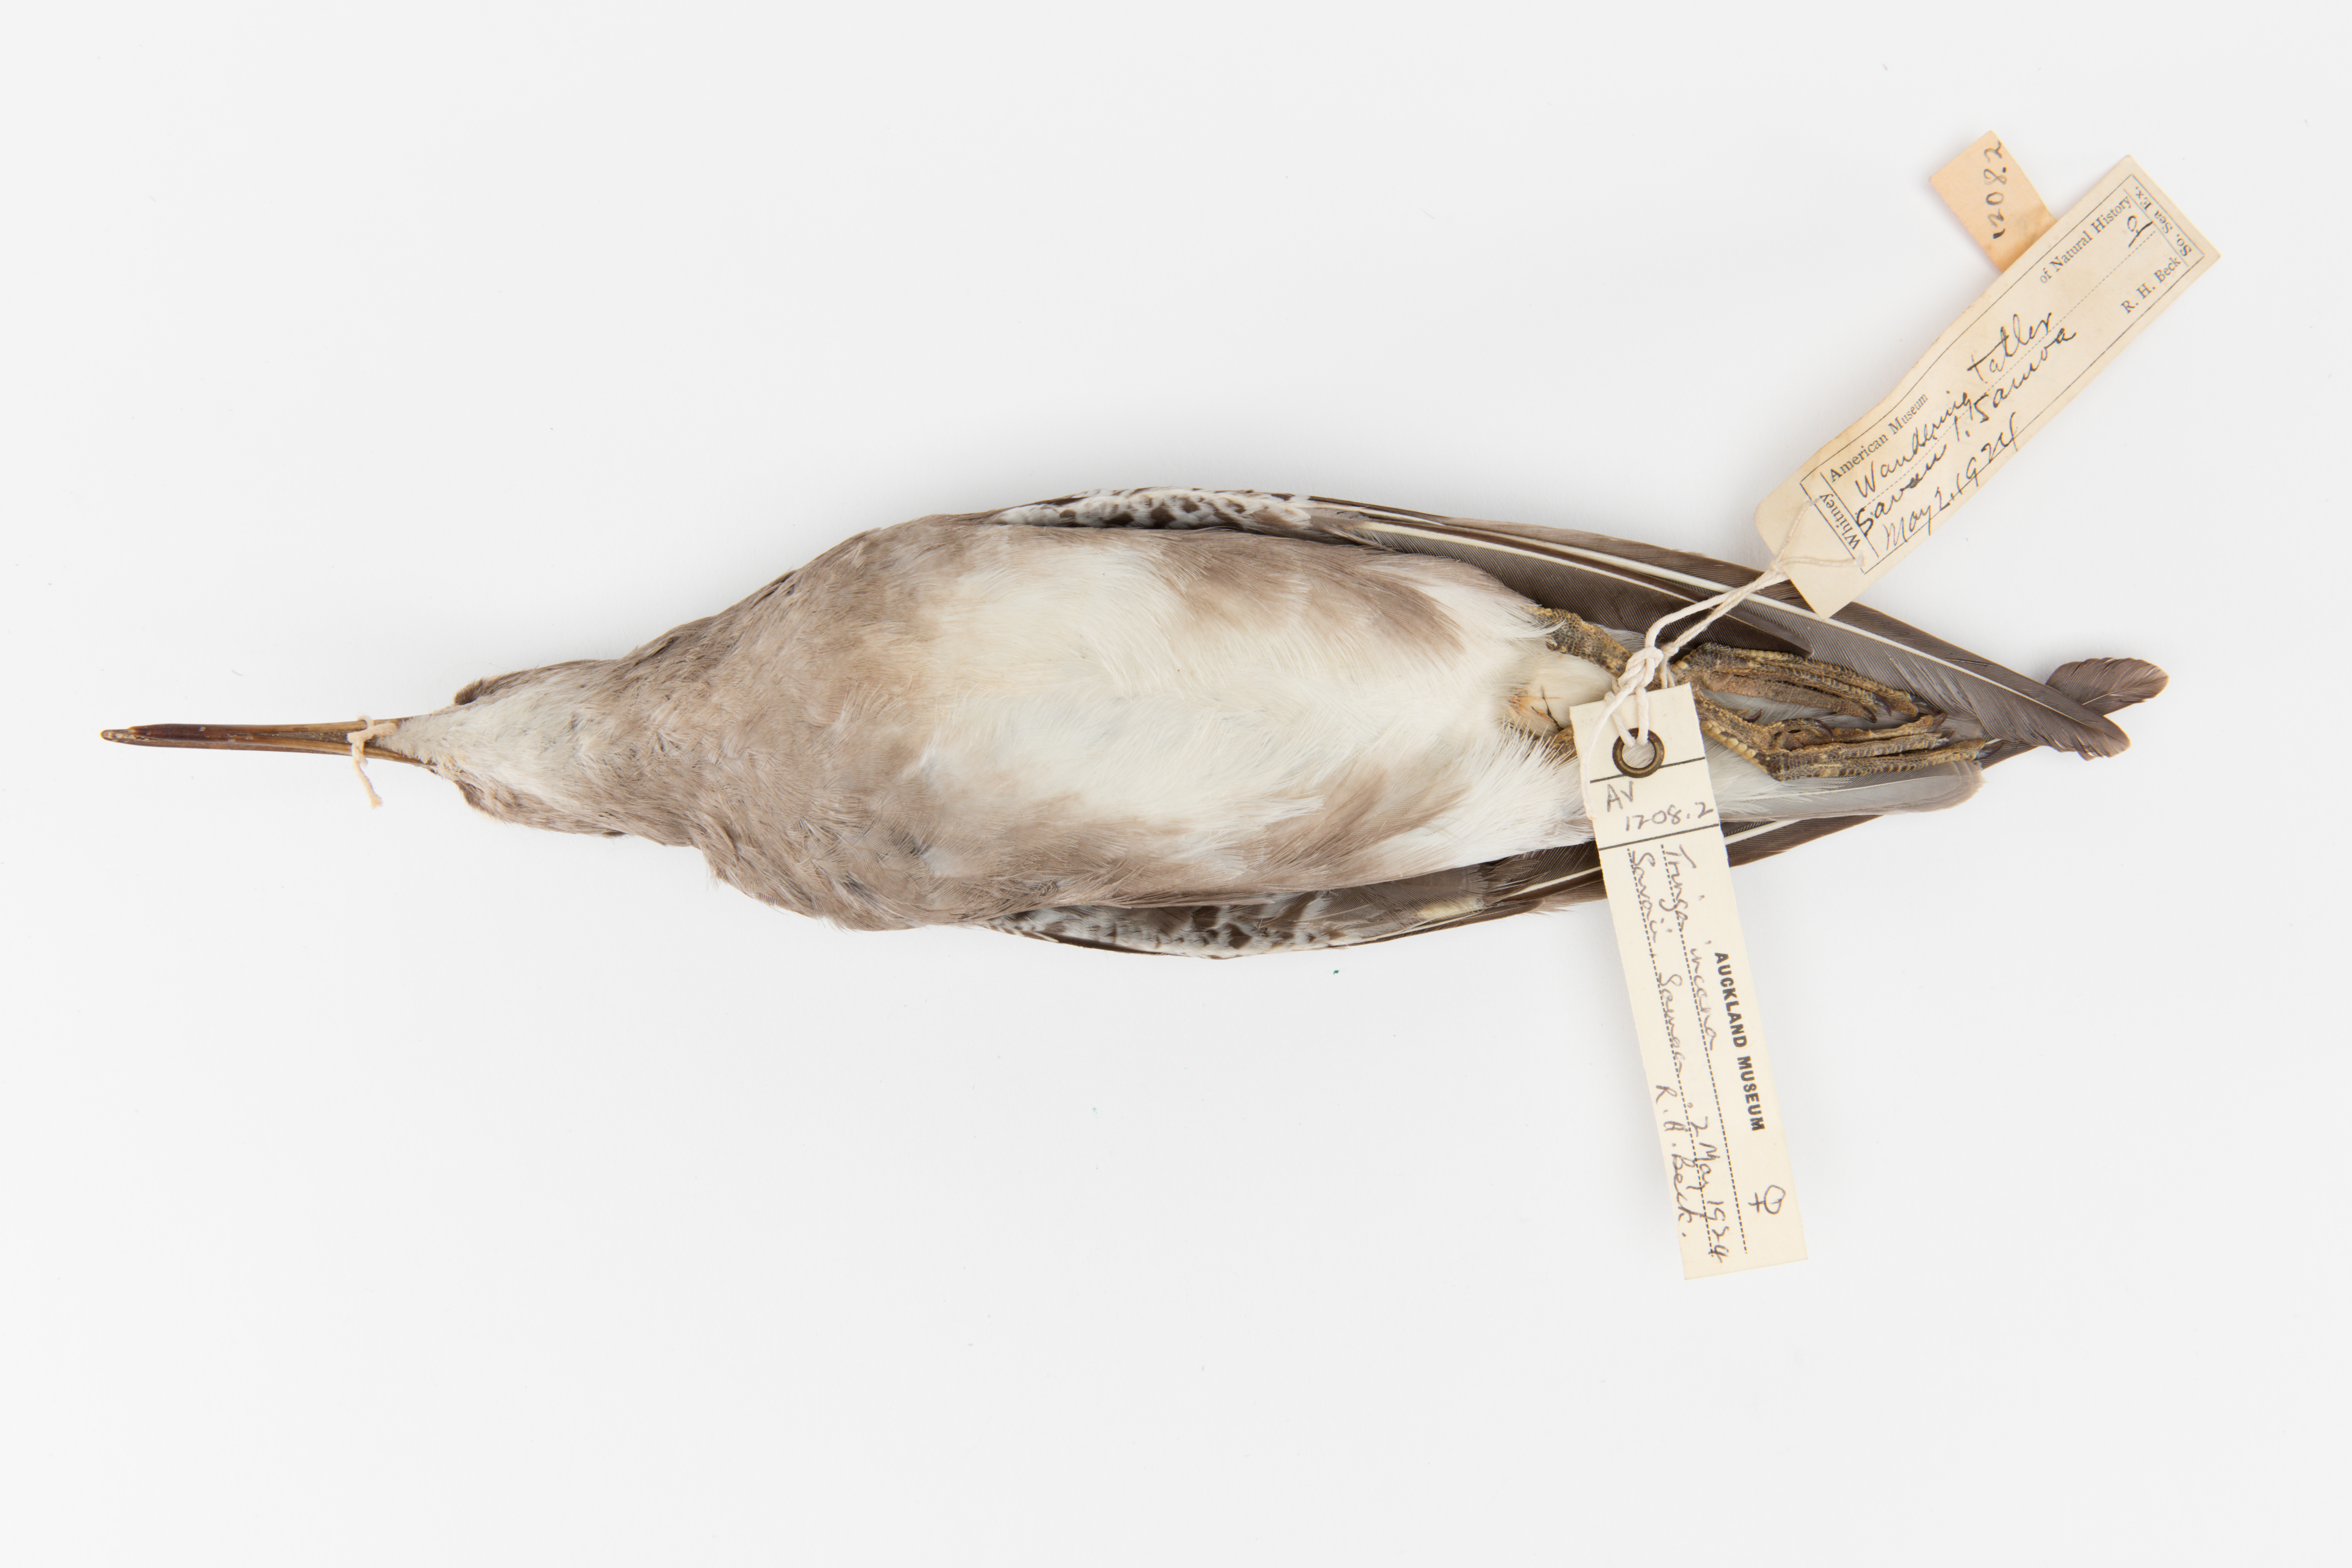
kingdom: Animalia
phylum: Chordata
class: Aves
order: Charadriiformes
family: Scolopacidae
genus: Tringa
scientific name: Tringa incana
